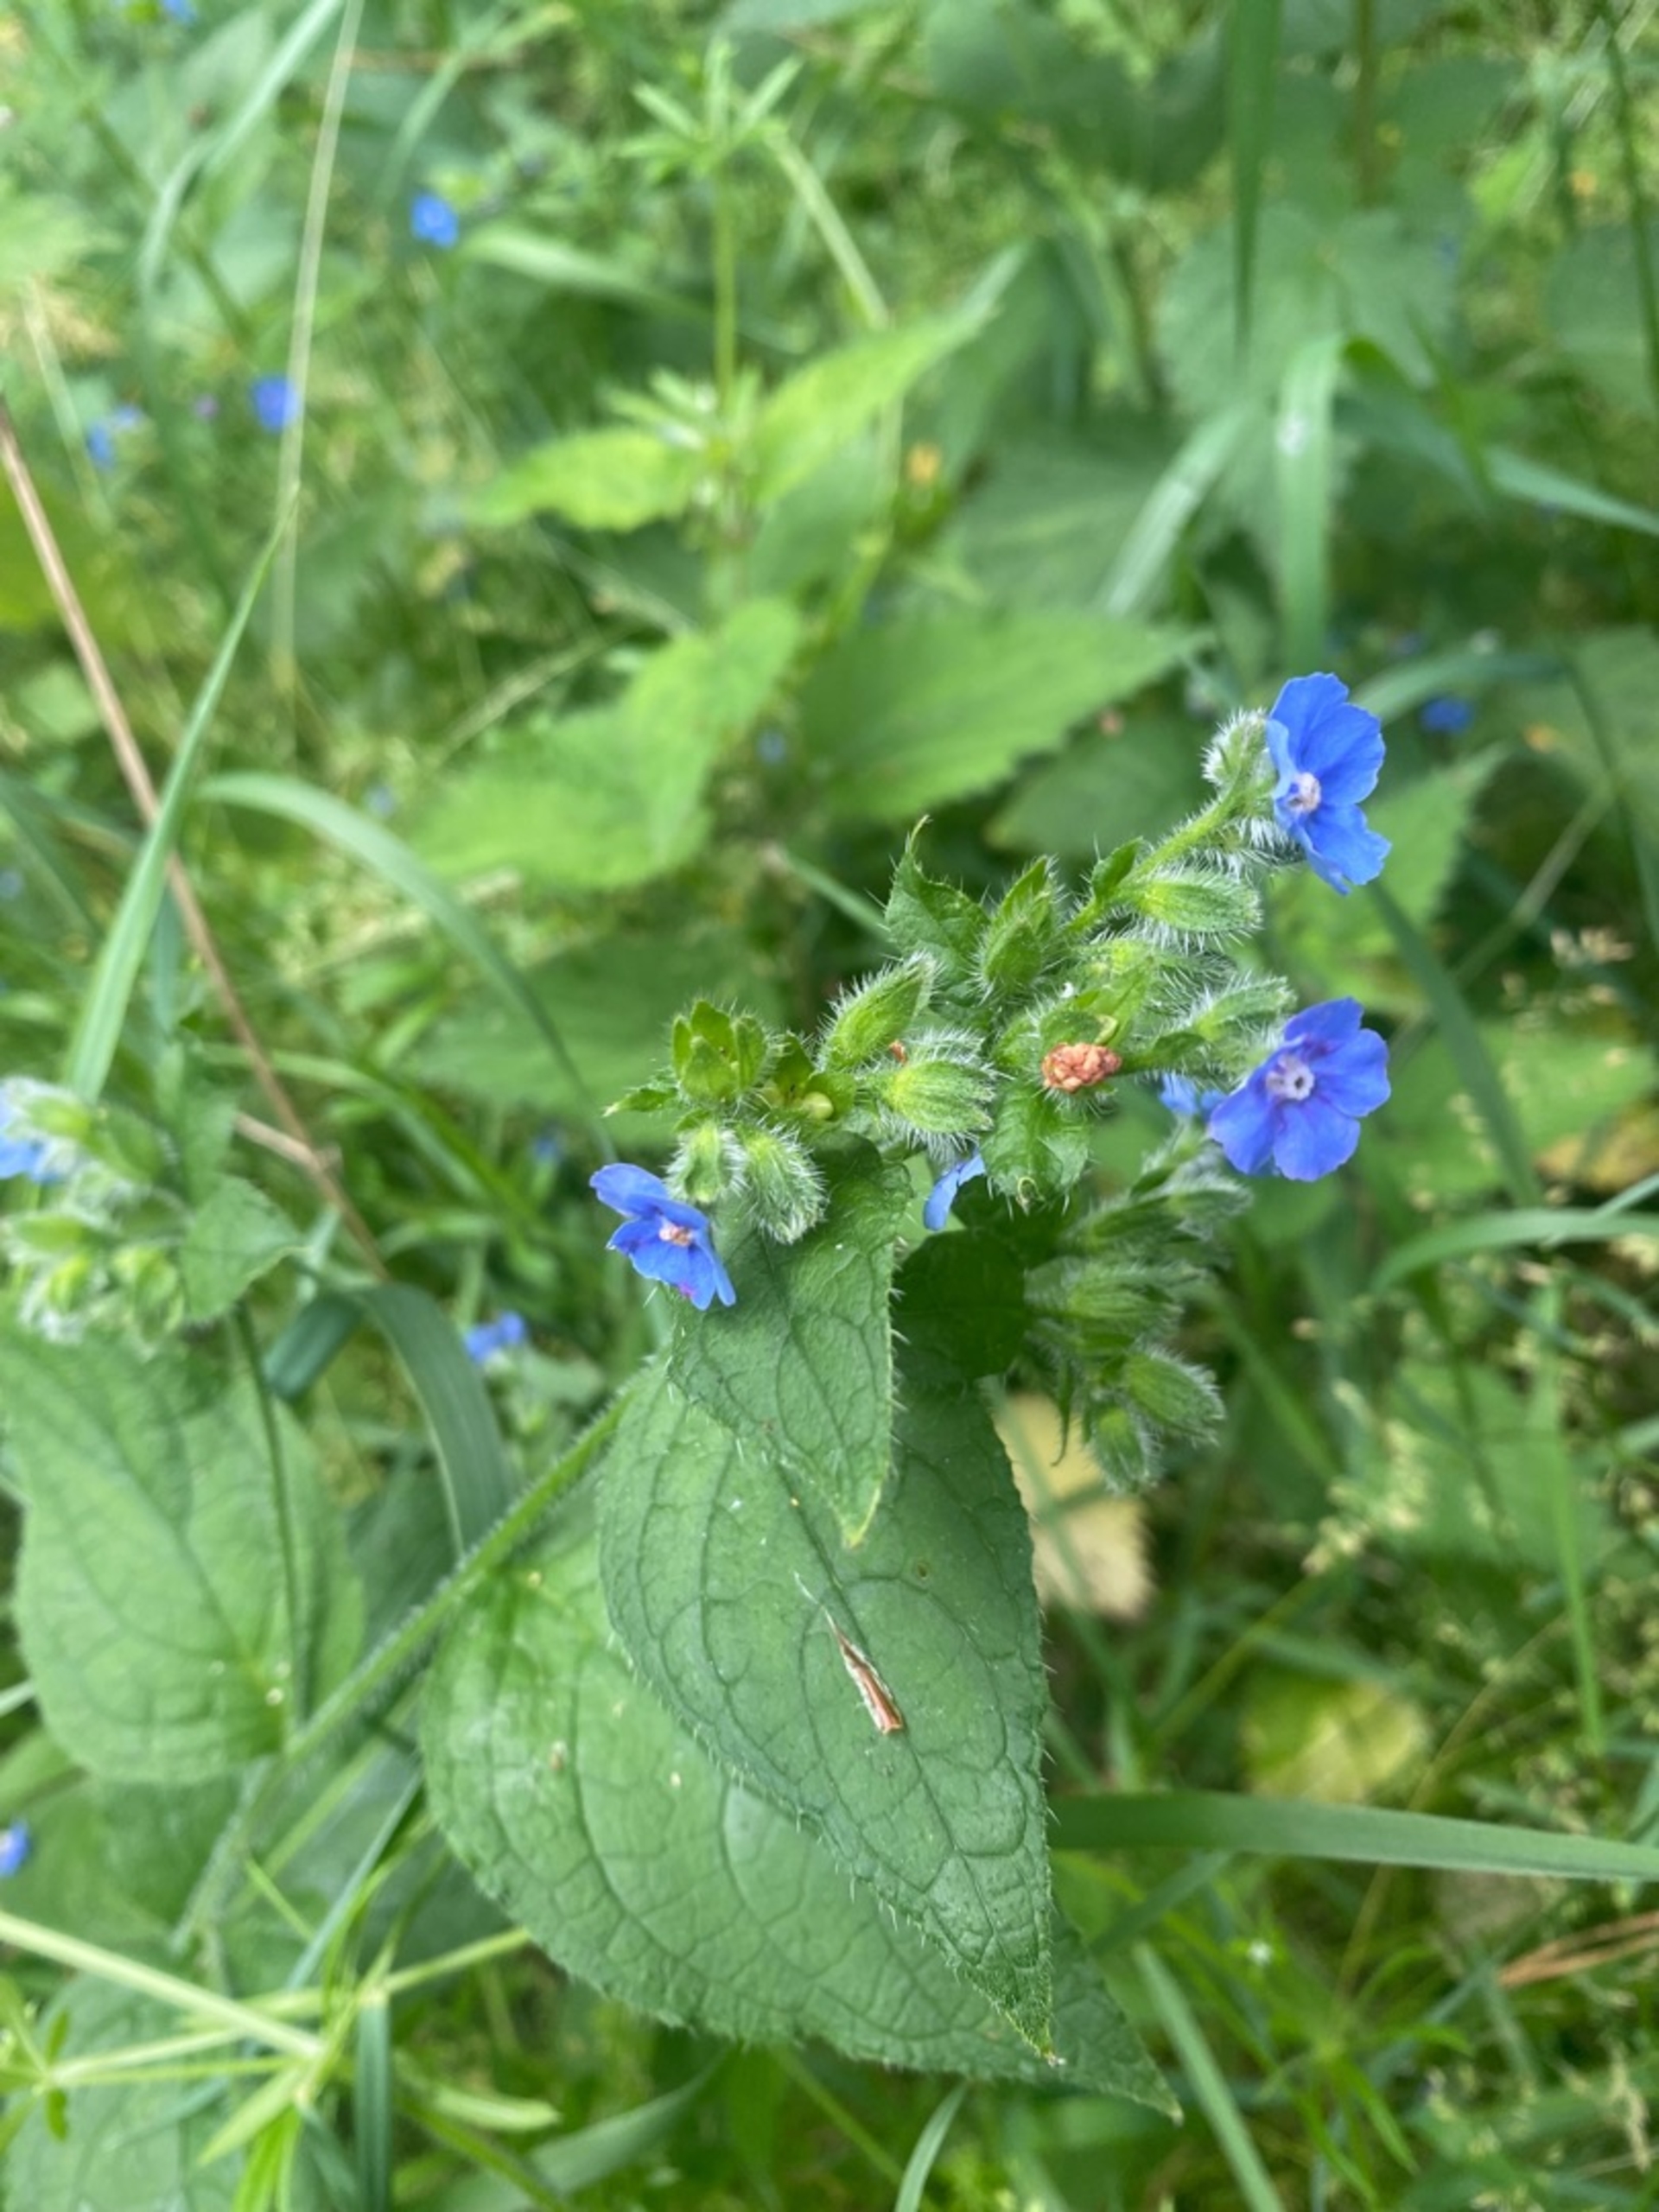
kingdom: Plantae
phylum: Tracheophyta
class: Magnoliopsida
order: Boraginales
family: Boraginaceae
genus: Pentaglottis
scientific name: Pentaglottis sempervirens
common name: Femtunge
